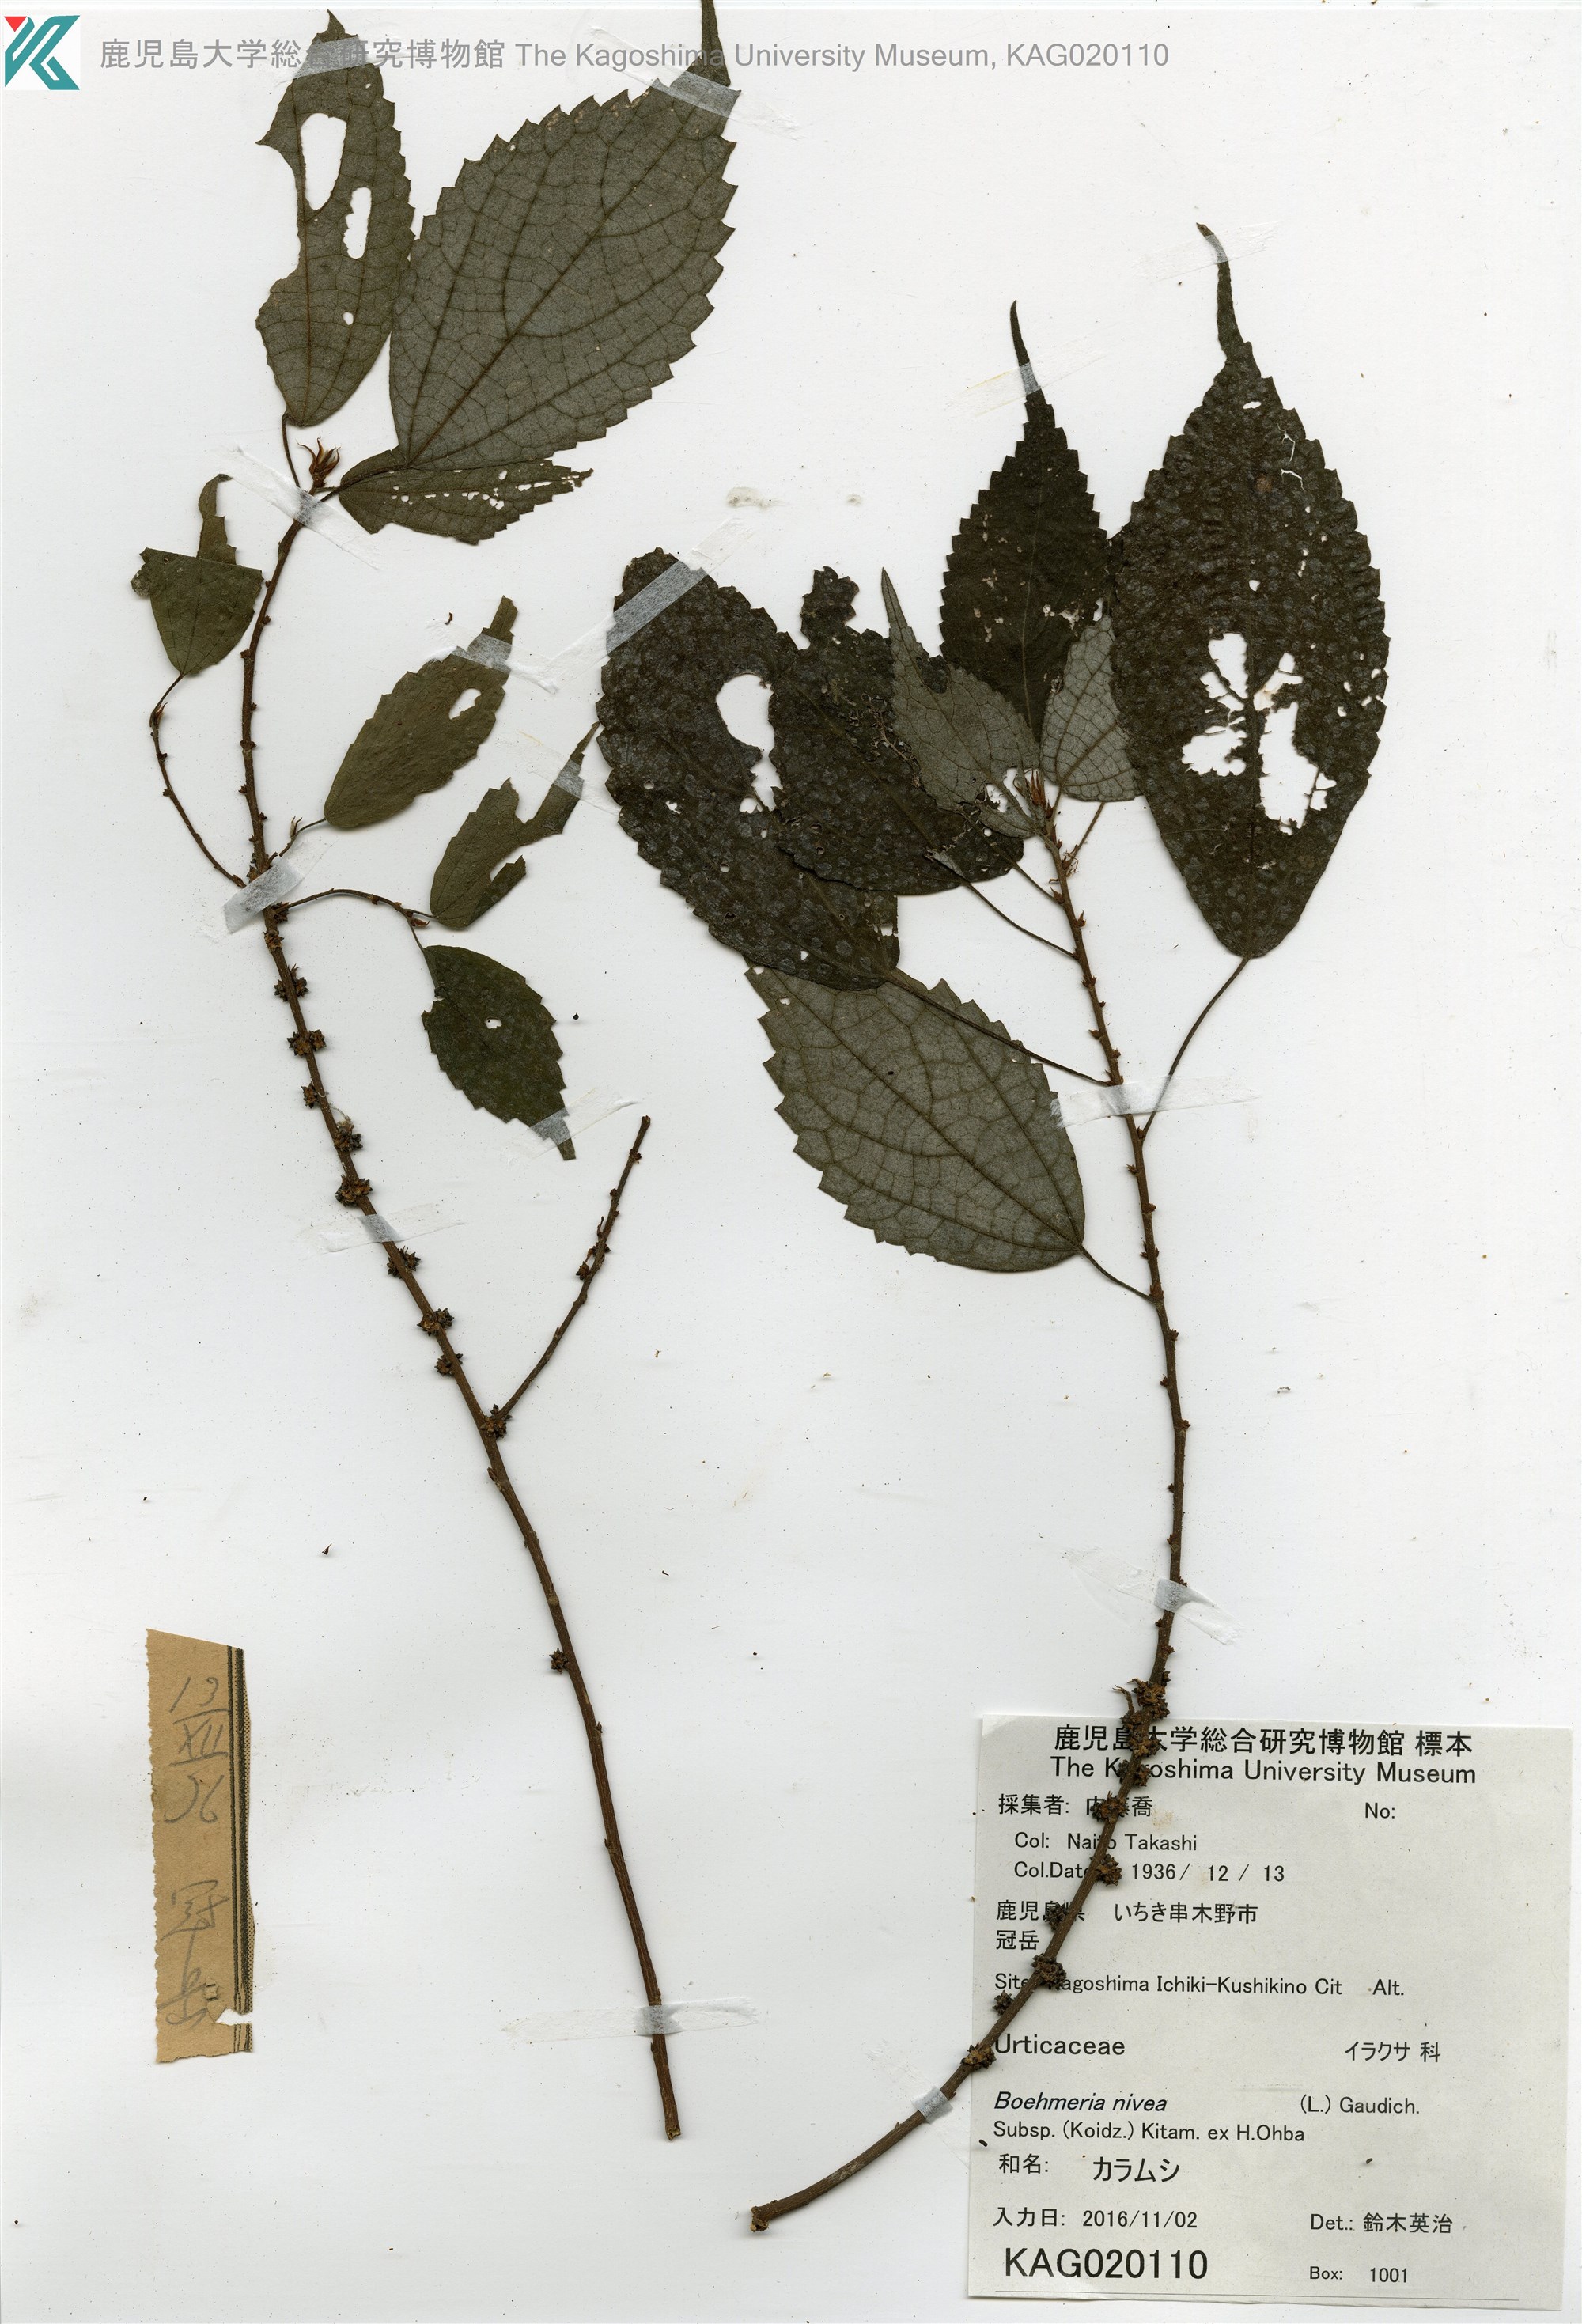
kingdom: Plantae
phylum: Tracheophyta
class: Magnoliopsida
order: Rosales
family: Urticaceae
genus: Boehmeria
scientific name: Boehmeria nivea
